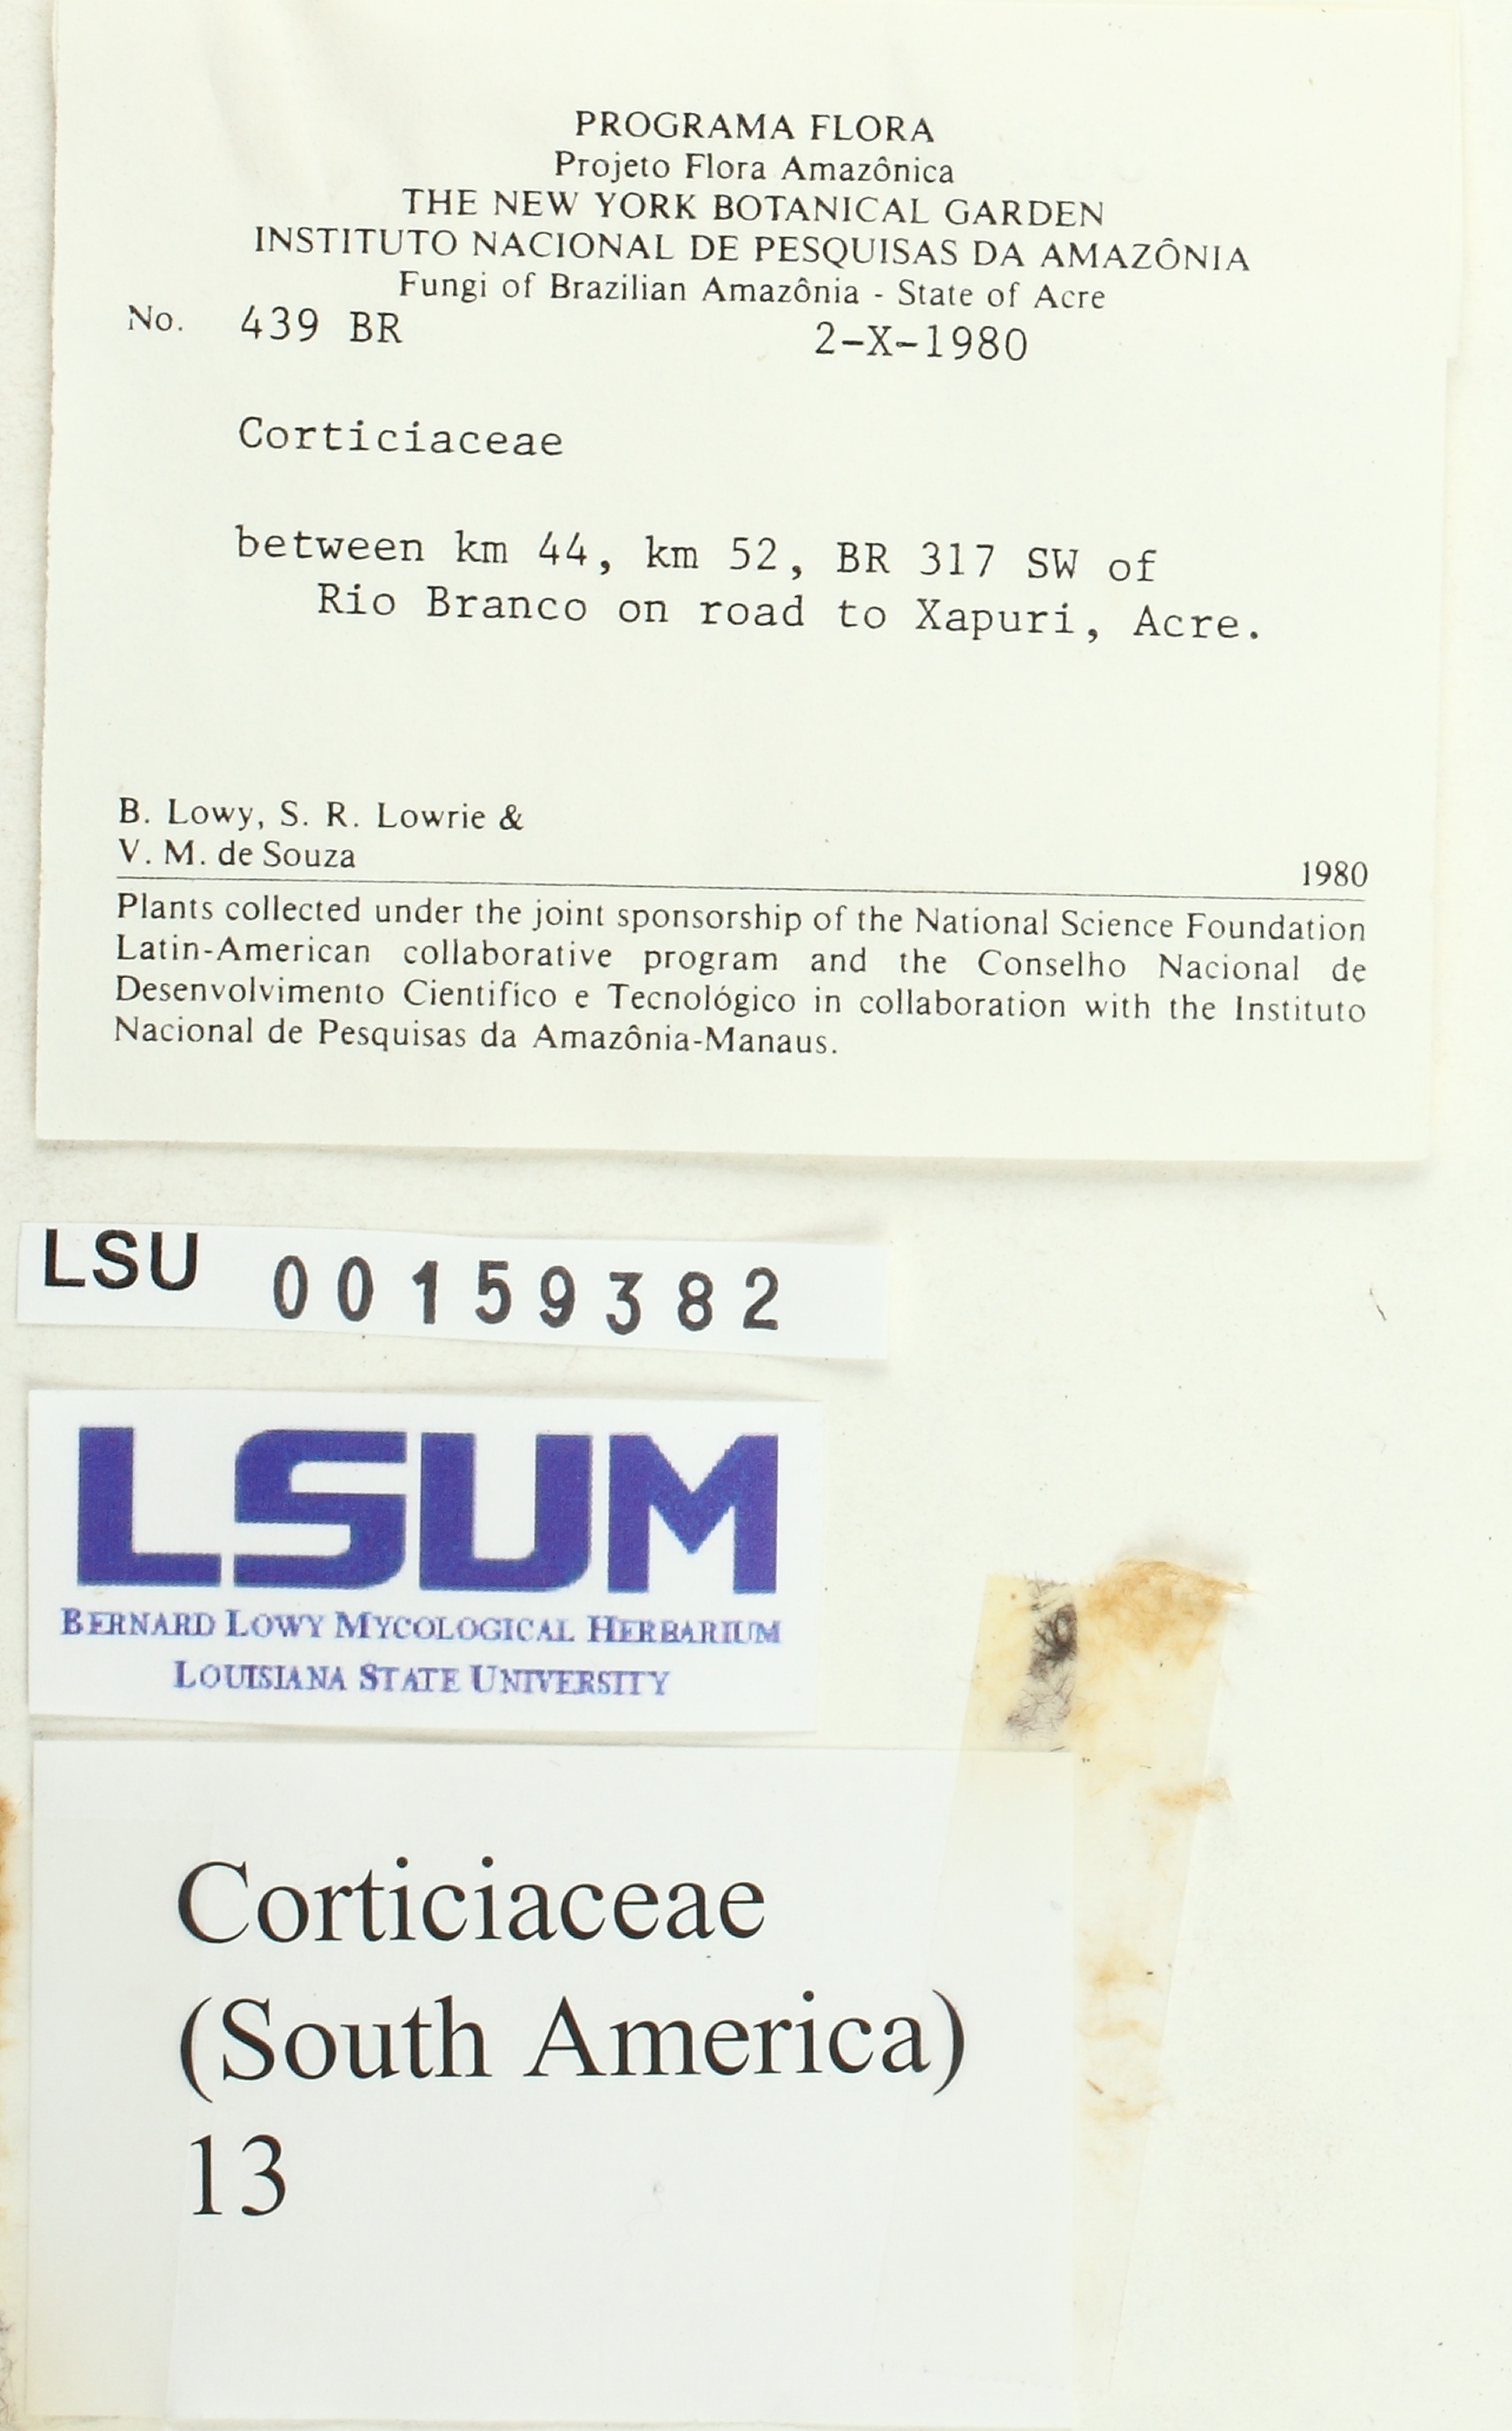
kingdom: Fungi
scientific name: Fungi
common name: Fungi
